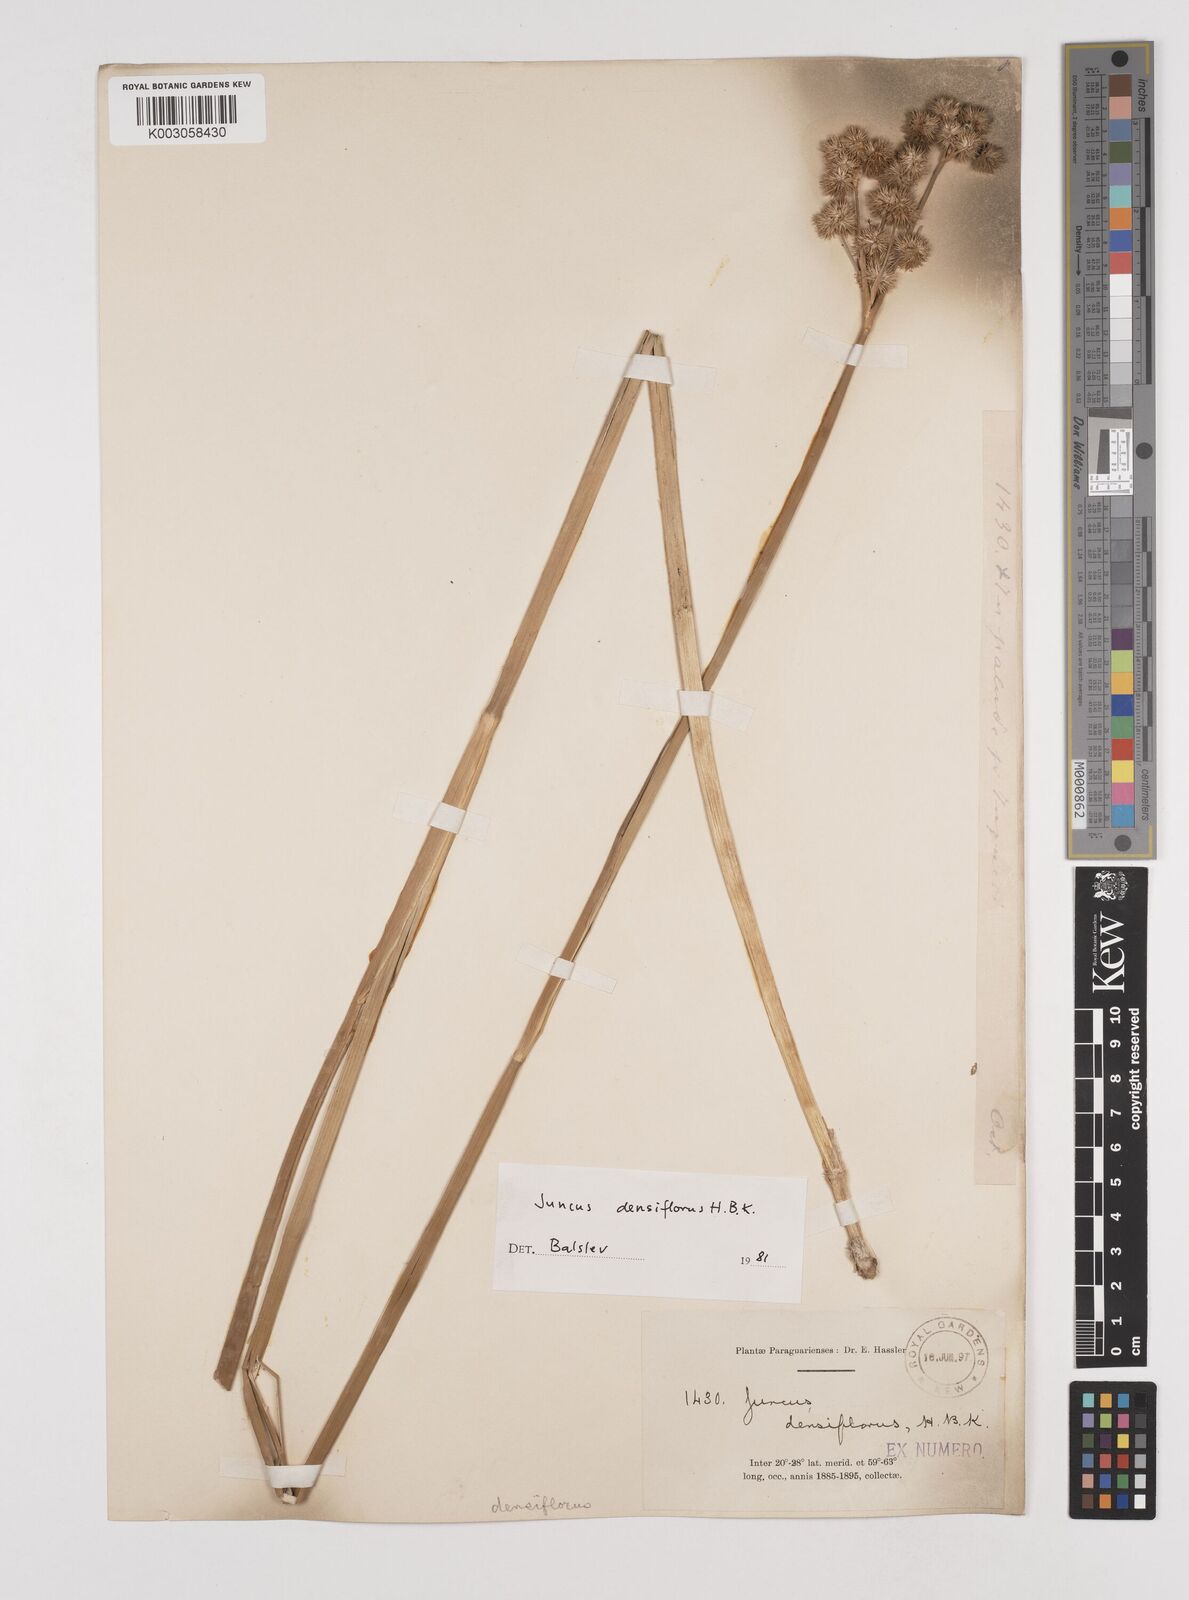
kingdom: Plantae
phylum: Tracheophyta
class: Liliopsida
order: Poales
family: Juncaceae
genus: Juncus
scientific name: Juncus densiflorus
